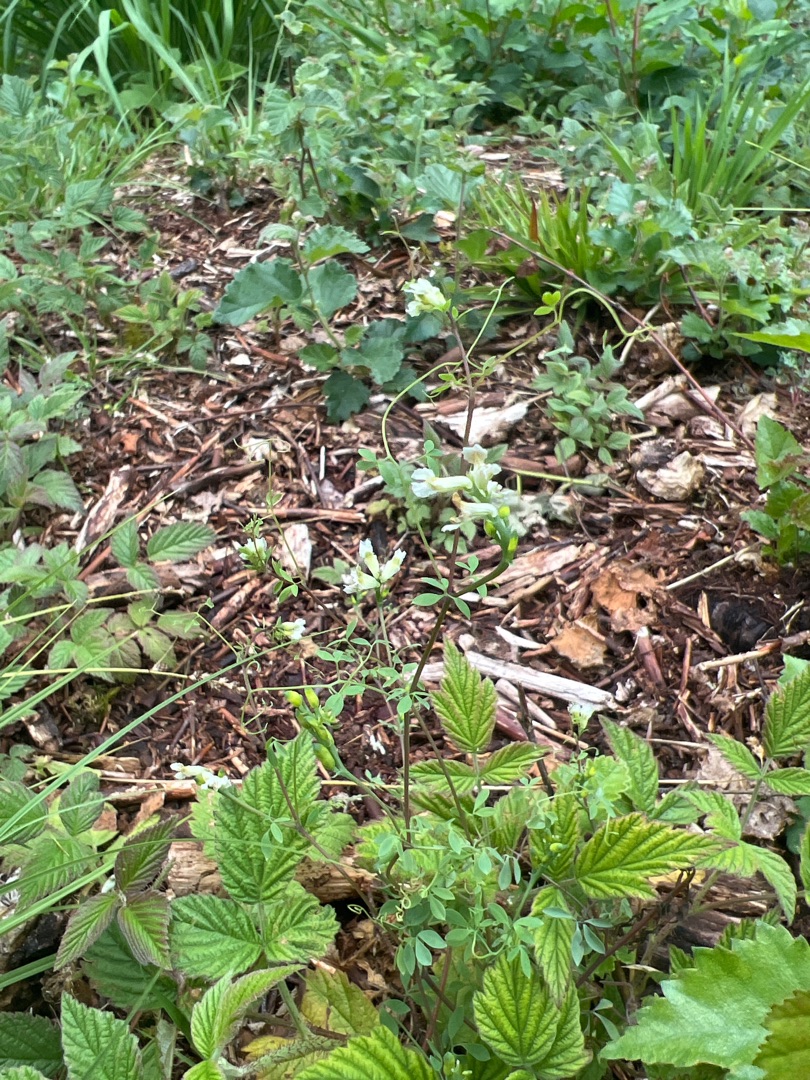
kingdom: Plantae
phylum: Tracheophyta
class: Magnoliopsida
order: Ranunculales
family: Papaveraceae
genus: Ceratocapnos
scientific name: Ceratocapnos claviculata
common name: Klatrende lærkespore
